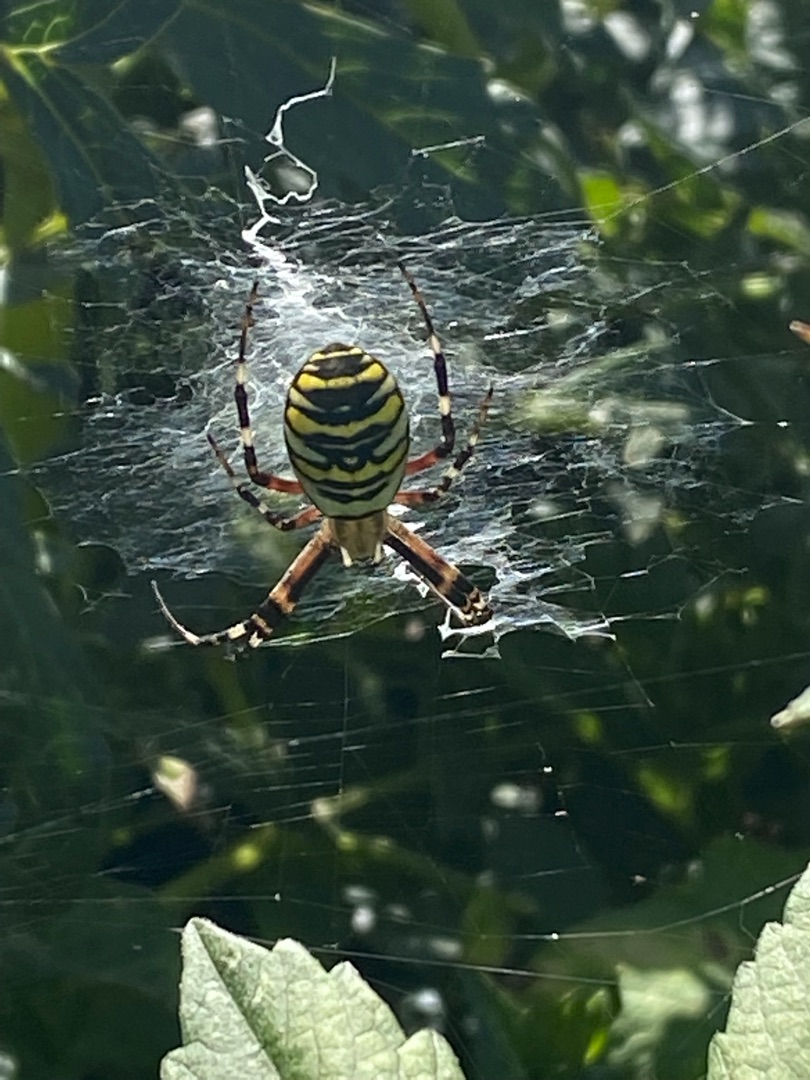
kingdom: Animalia
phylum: Arthropoda
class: Arachnida
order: Araneae
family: Araneidae
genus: Argiope
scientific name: Argiope bruennichi
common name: Hvepseedderkop
